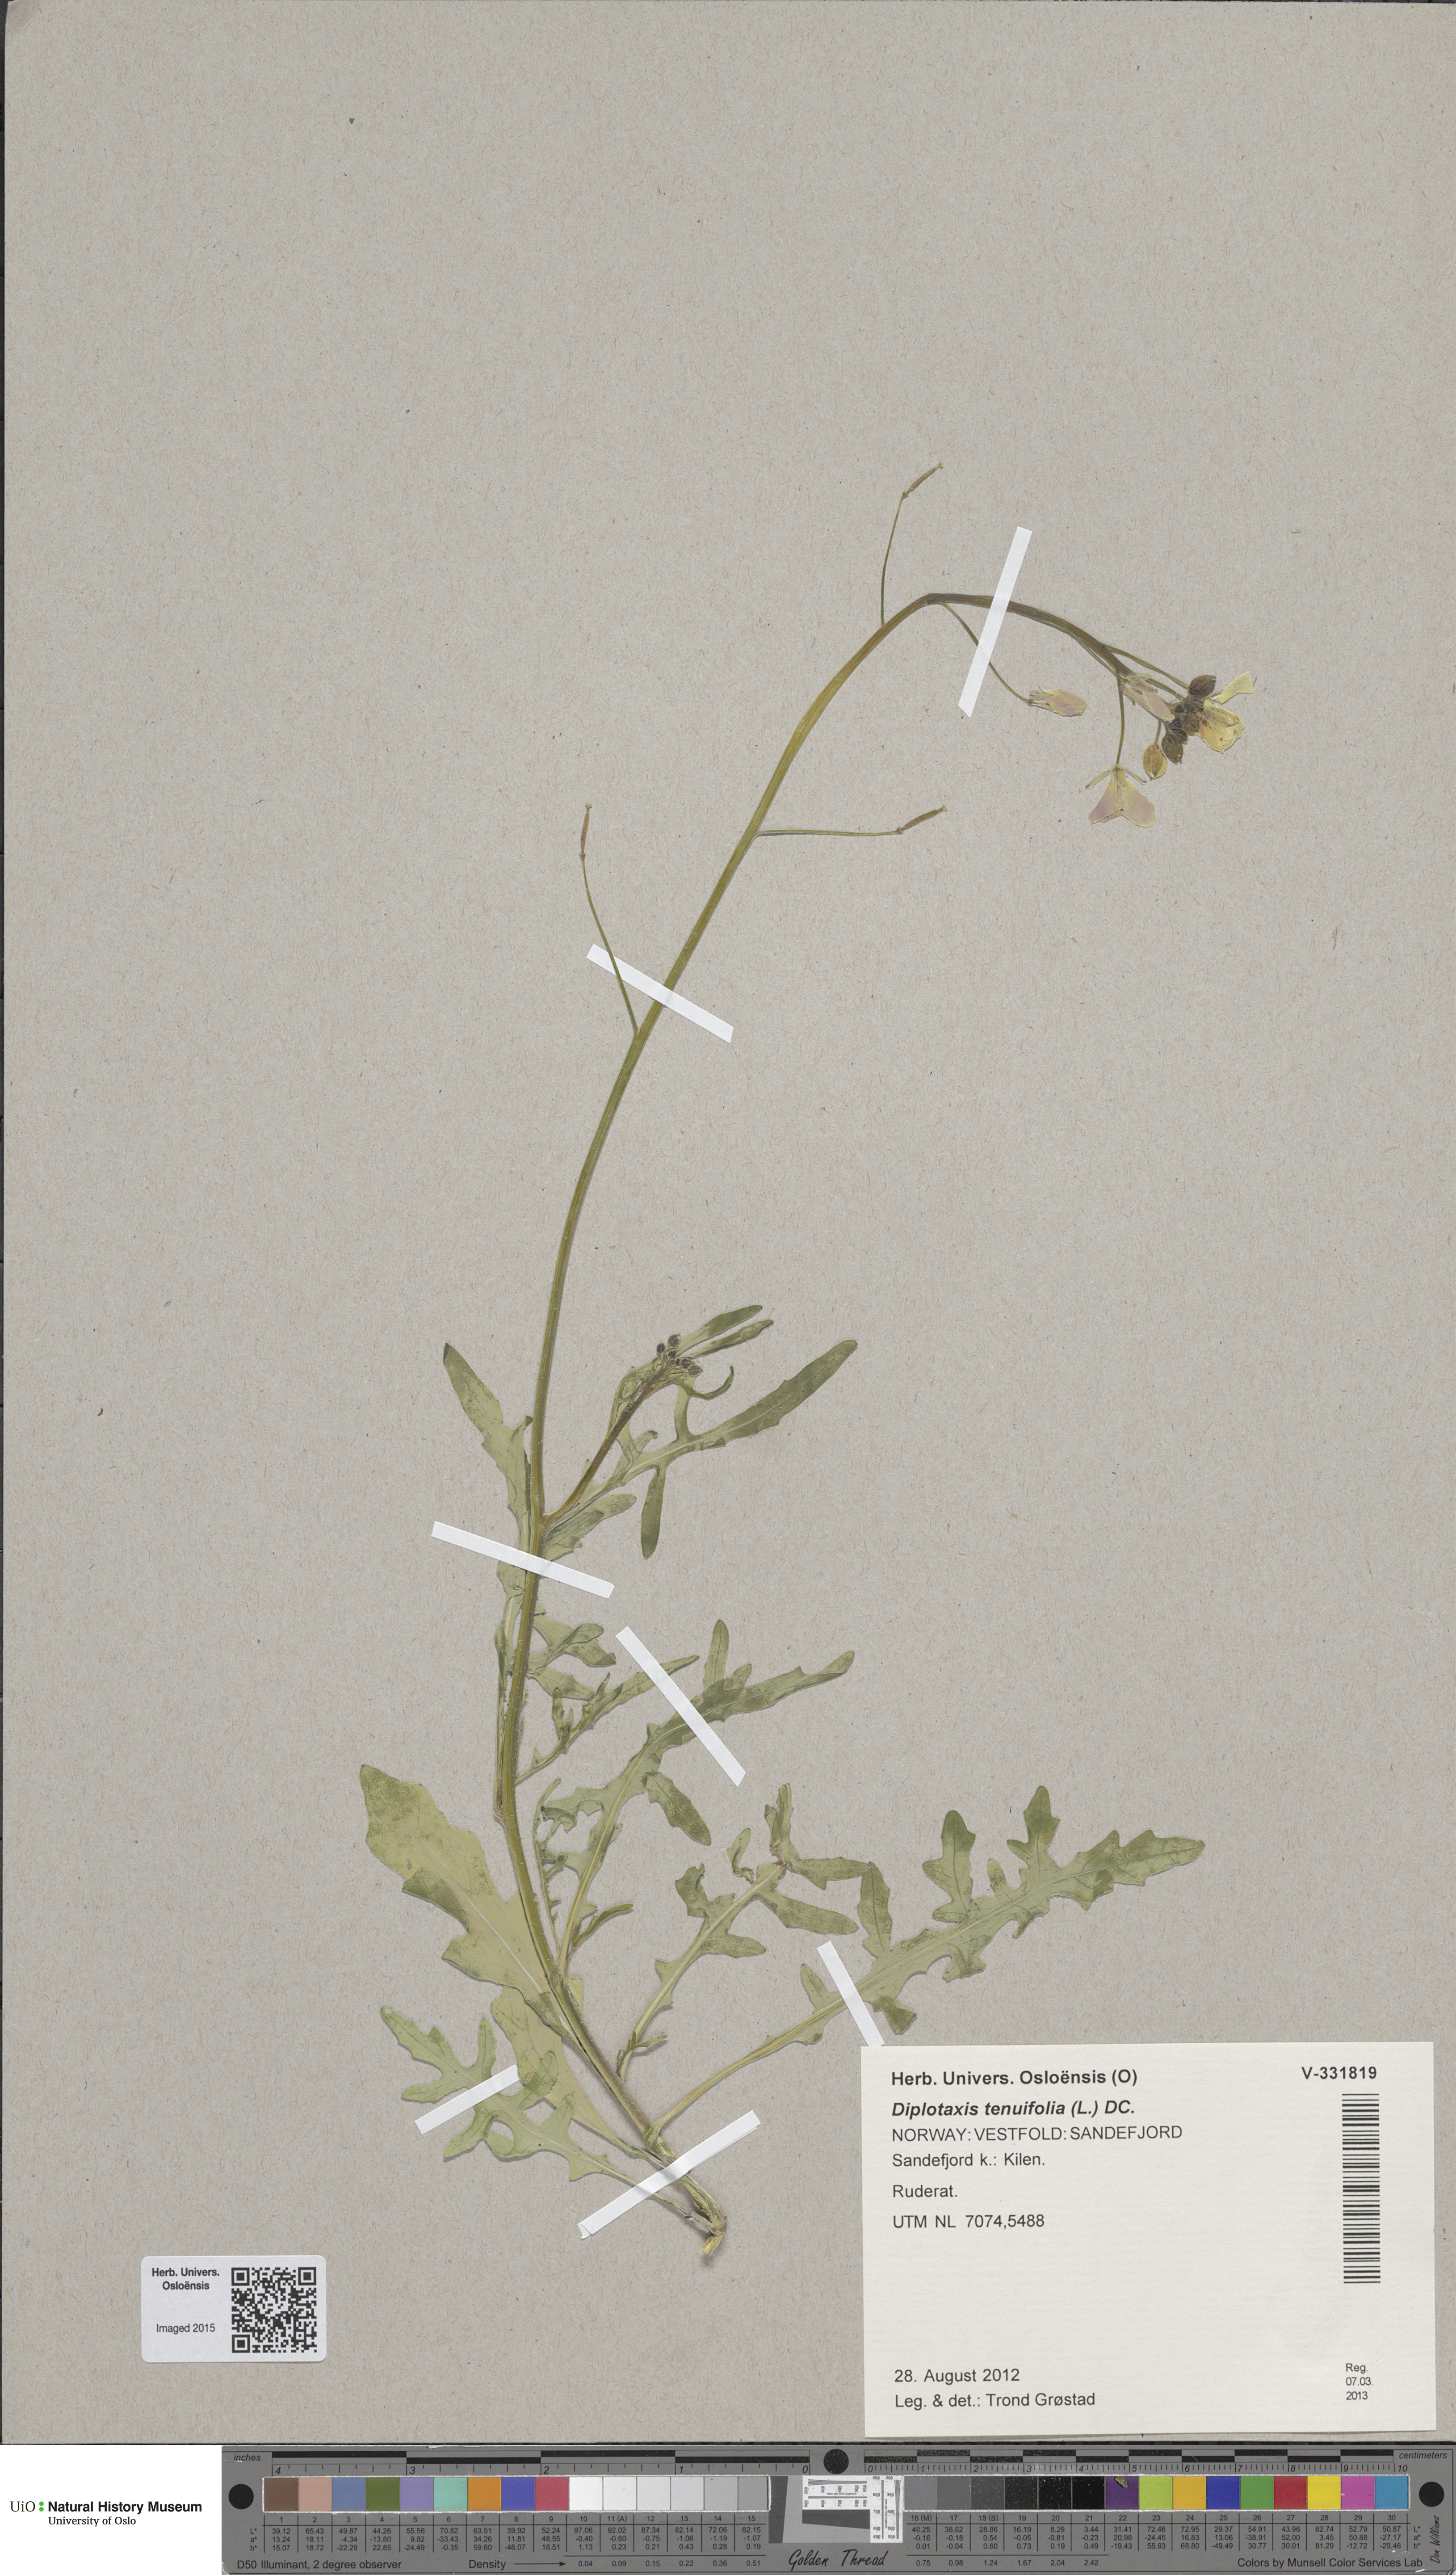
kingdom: Plantae
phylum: Tracheophyta
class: Magnoliopsida
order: Brassicales
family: Brassicaceae
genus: Diplotaxis
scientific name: Diplotaxis tenuifolia
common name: Perennial wall-rocket
